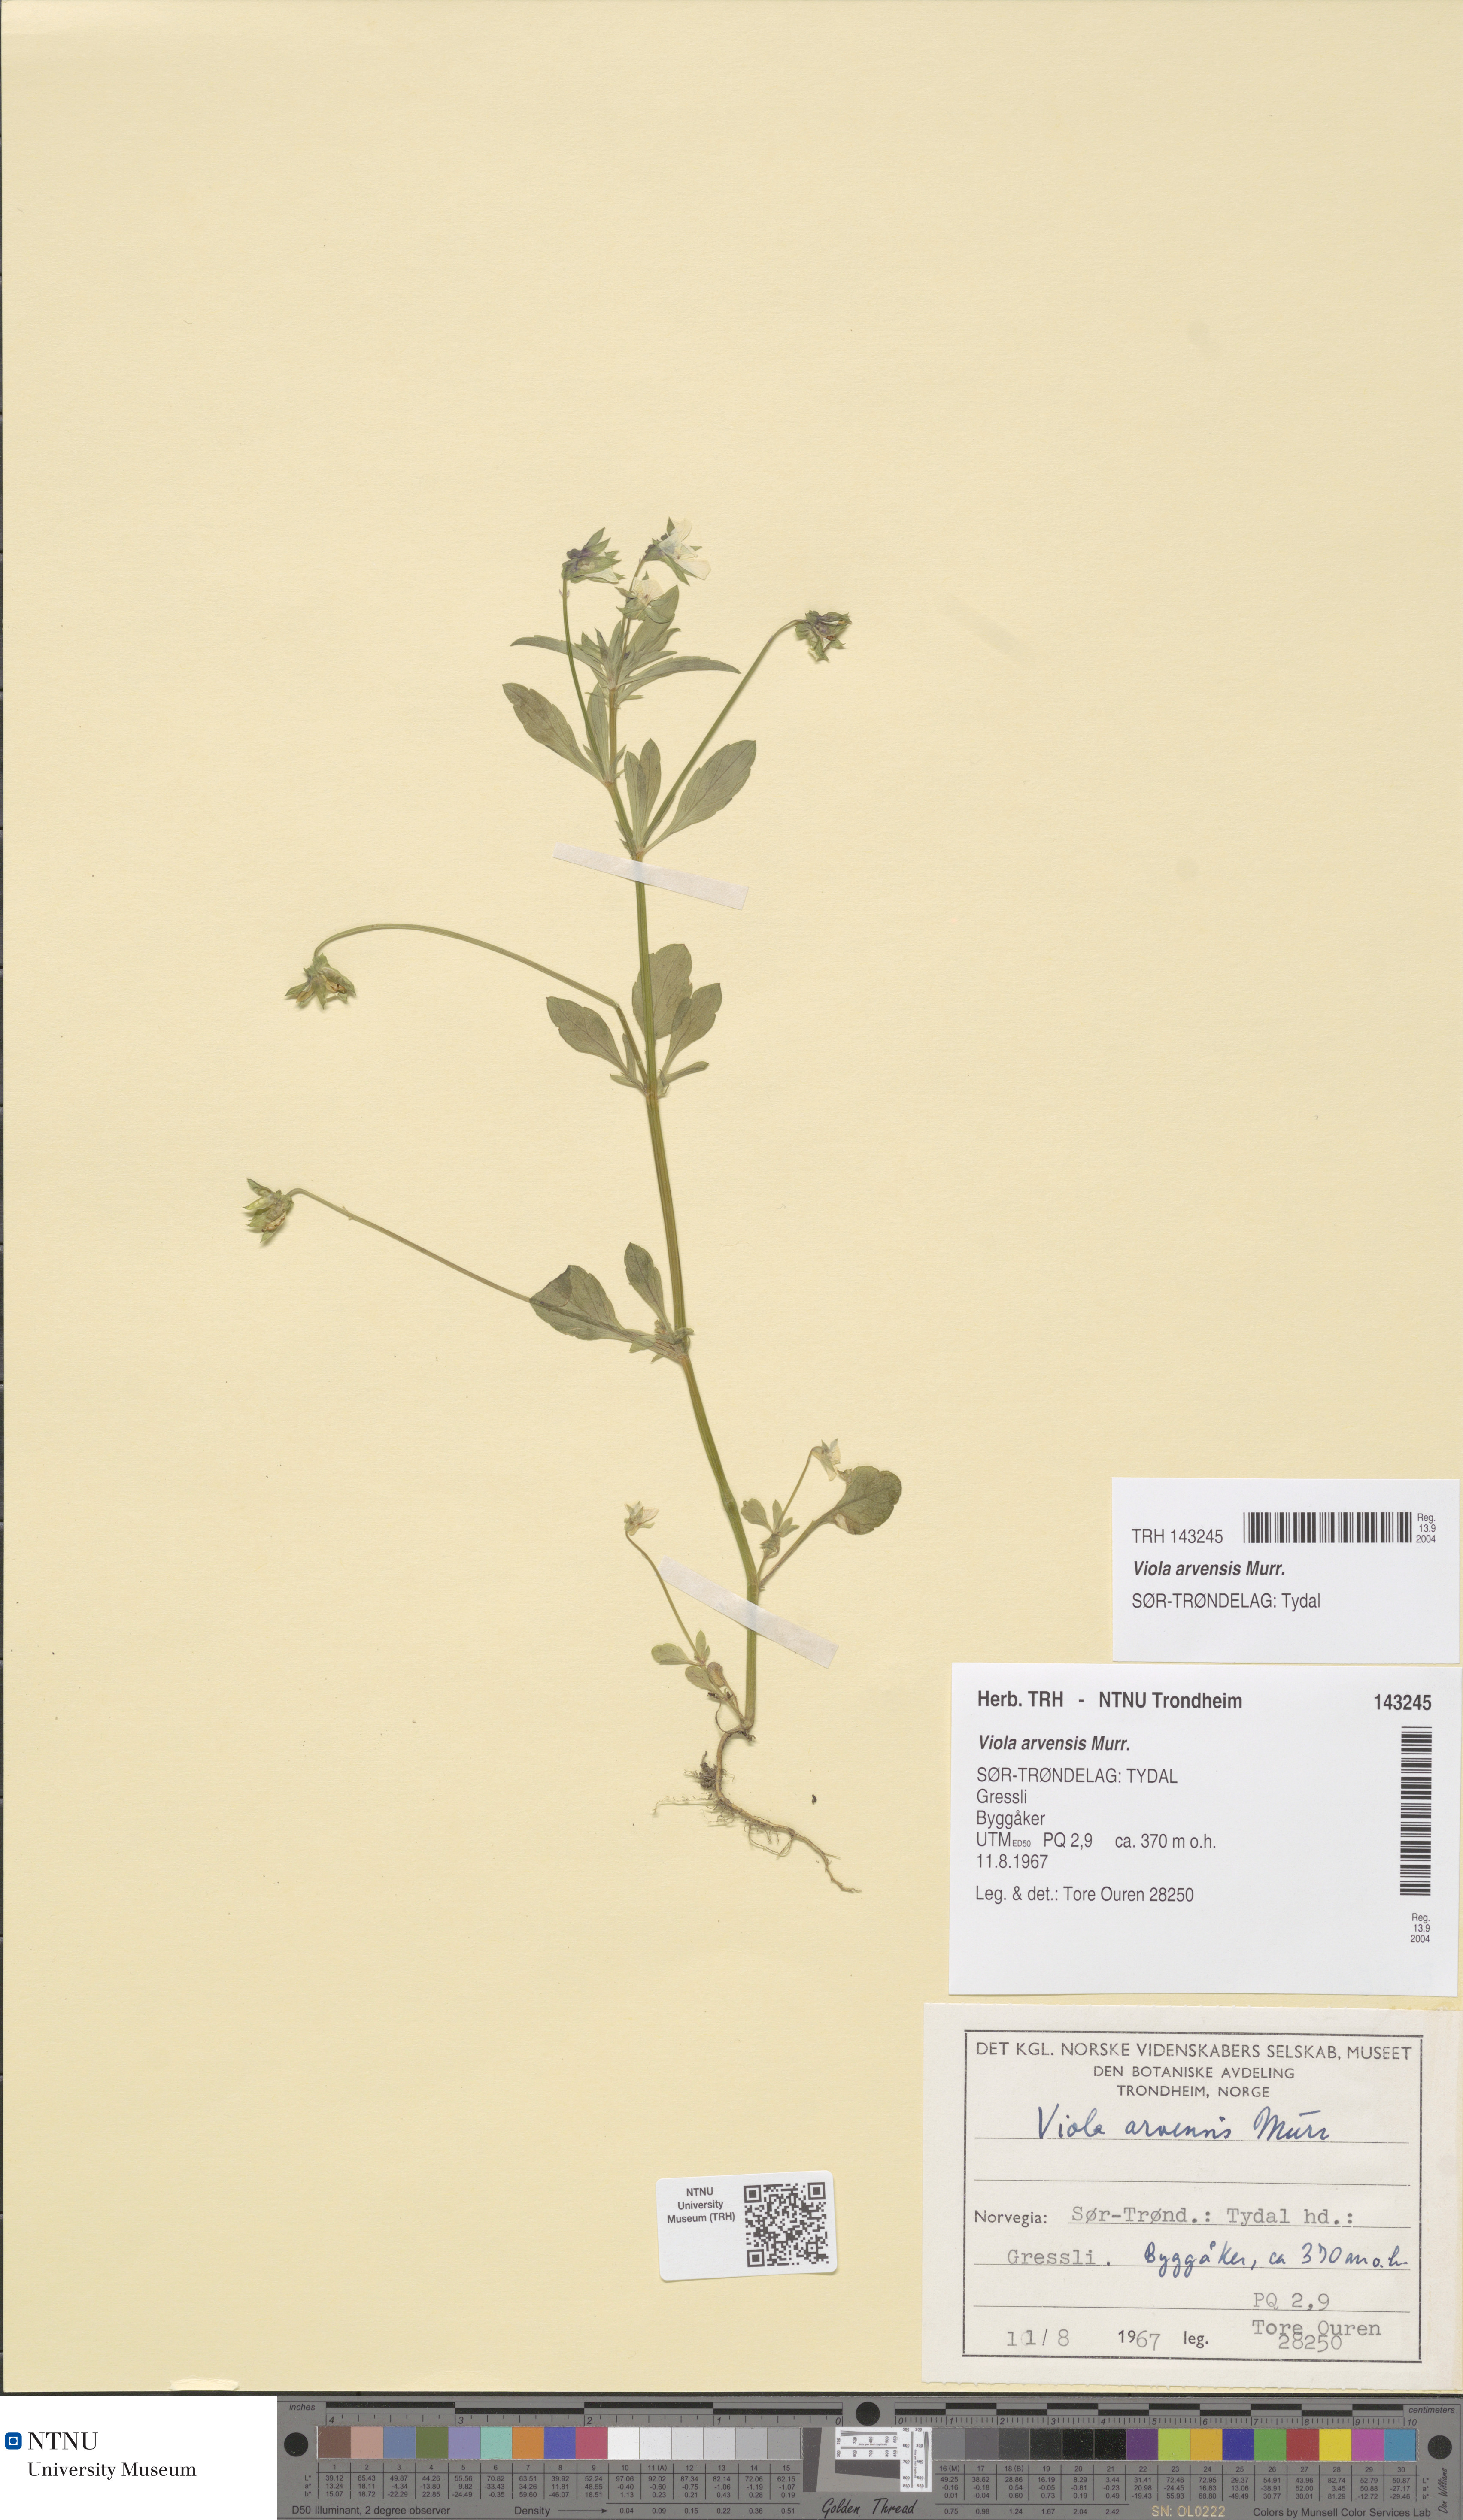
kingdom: Plantae
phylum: Tracheophyta
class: Magnoliopsida
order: Malpighiales
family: Violaceae
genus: Viola
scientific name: Viola arvensis
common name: Field pansy
